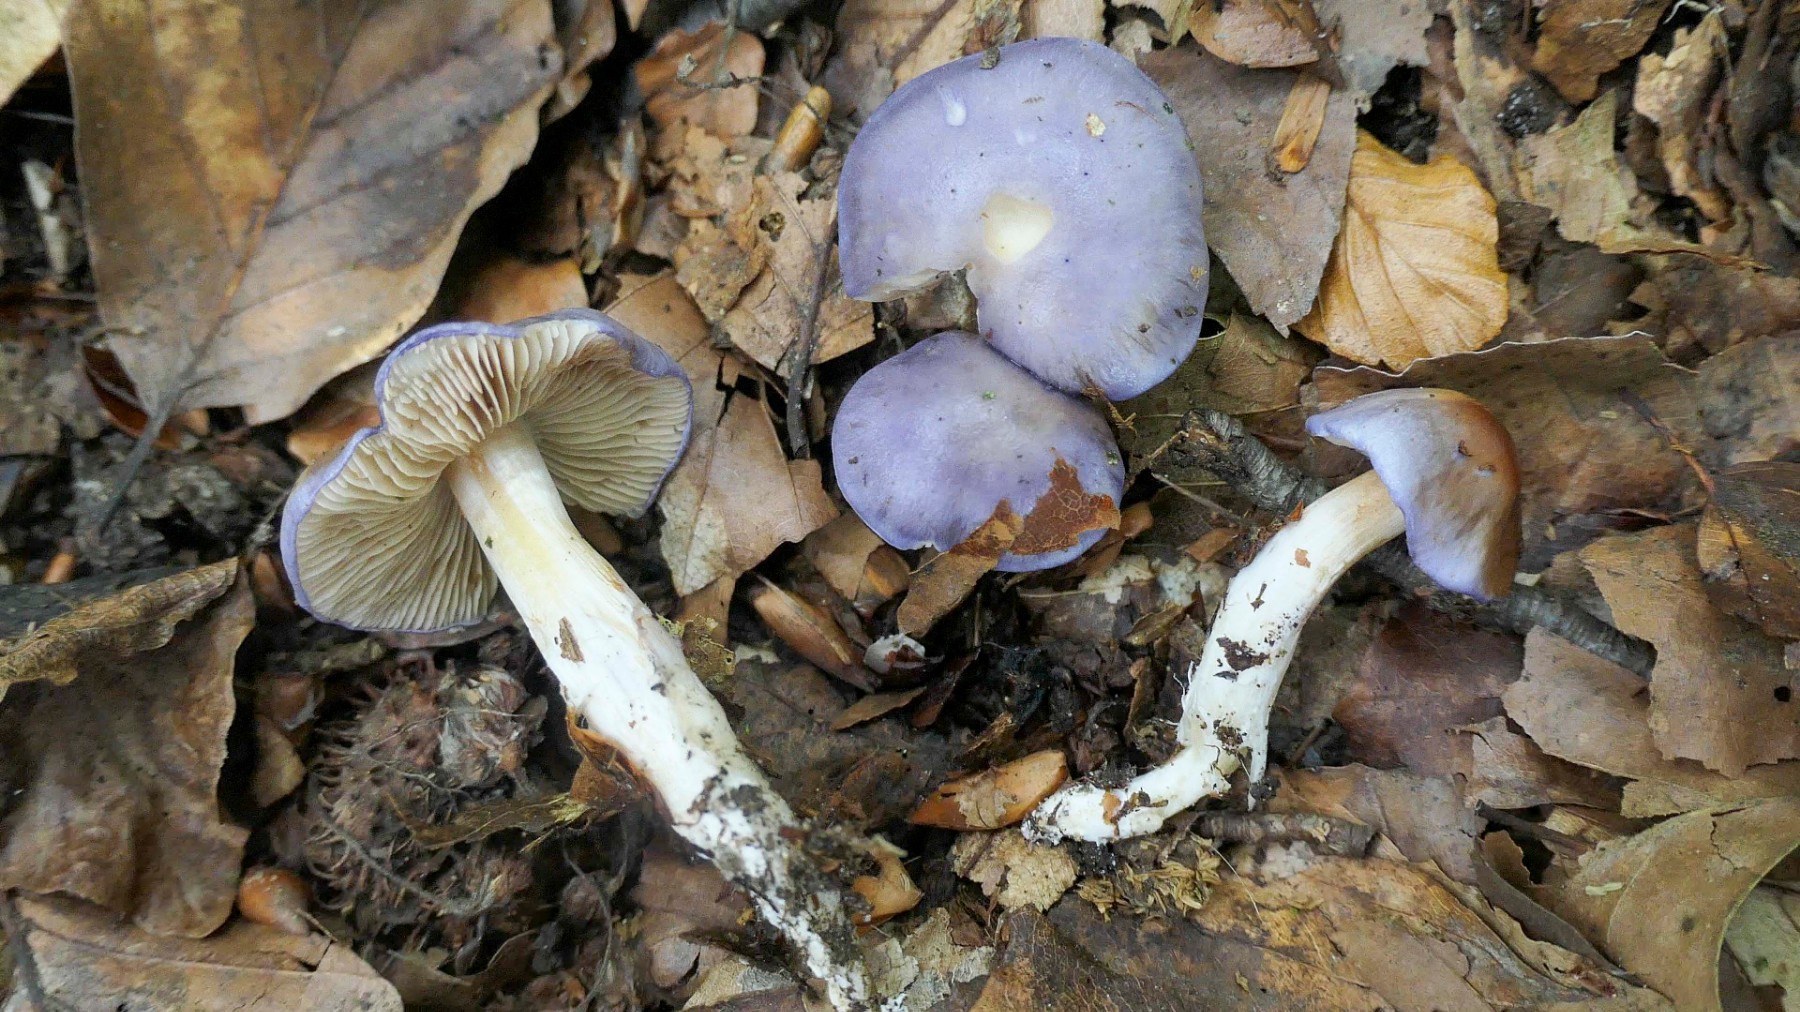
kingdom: Fungi
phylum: Basidiomycota
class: Agaricomycetes
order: Agaricales
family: Cortinariaceae
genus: Thaxterogaster
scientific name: Thaxterogaster croceocoeruleus
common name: blågullig slørhat
